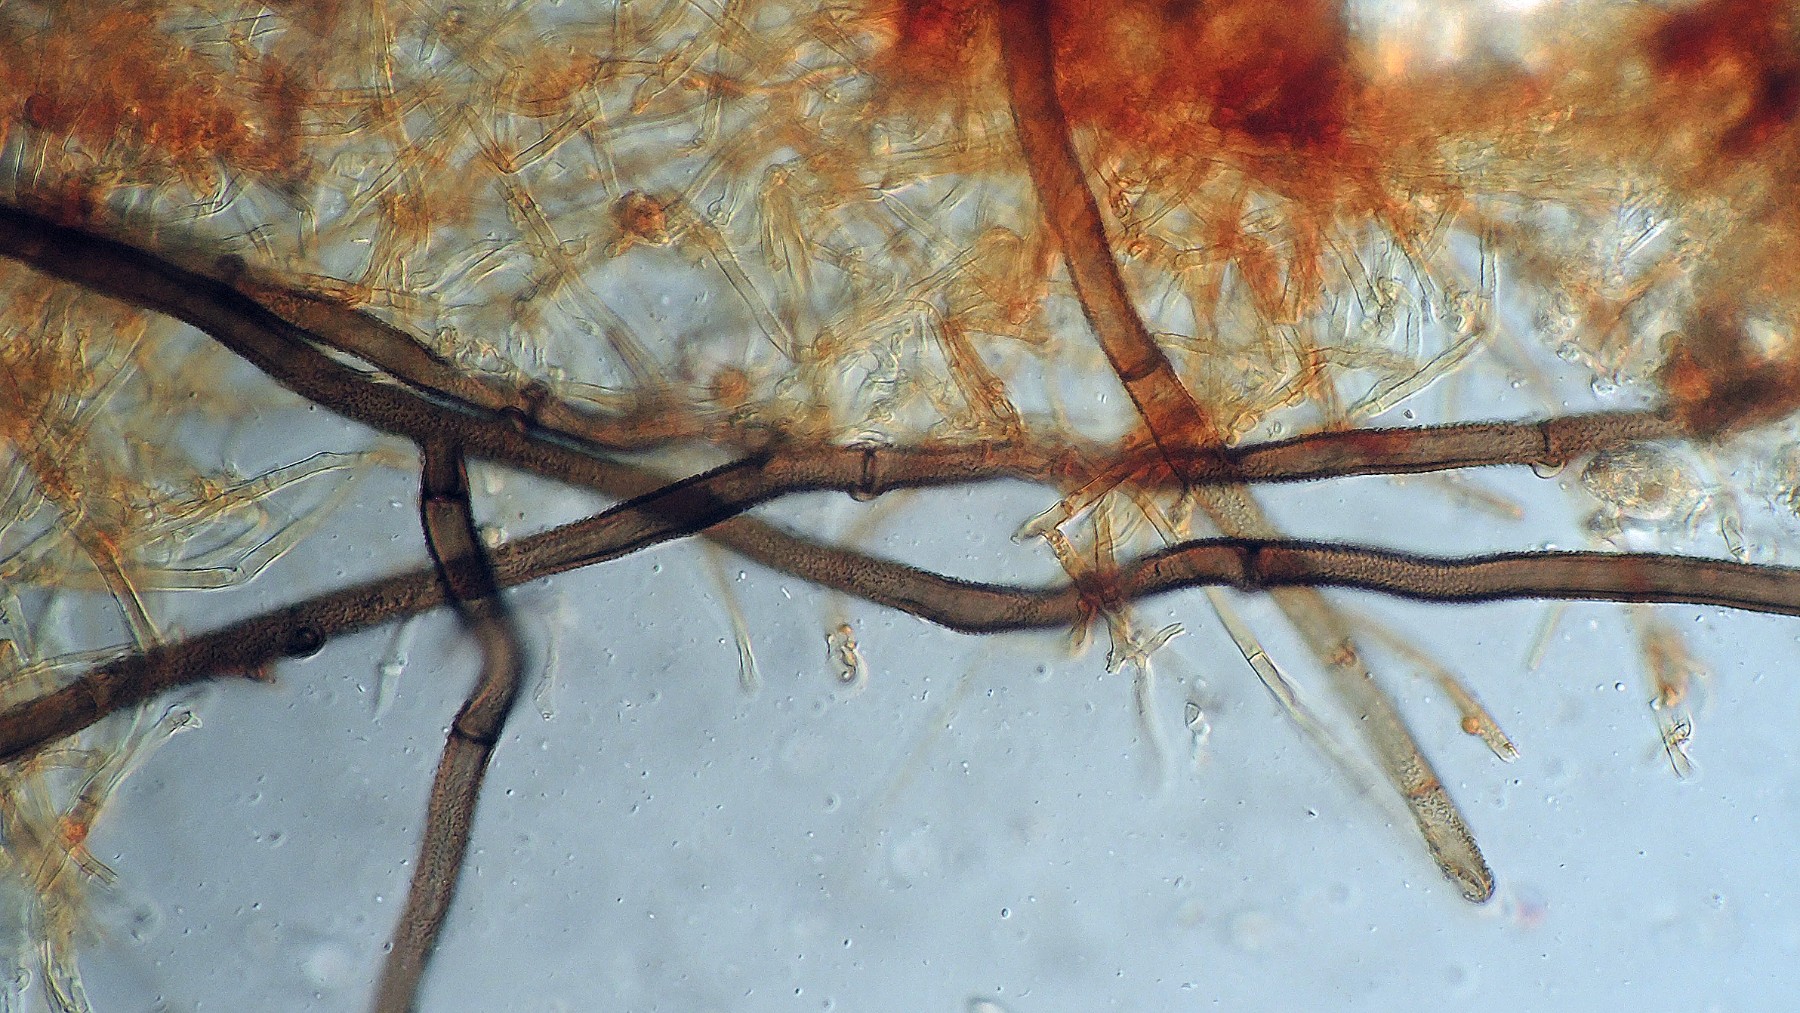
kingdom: Fungi
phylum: Basidiomycota
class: Agaricomycetes
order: Thelephorales
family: Thelephoraceae
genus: Tomentella
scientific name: Tomentella lilacinogrisea
